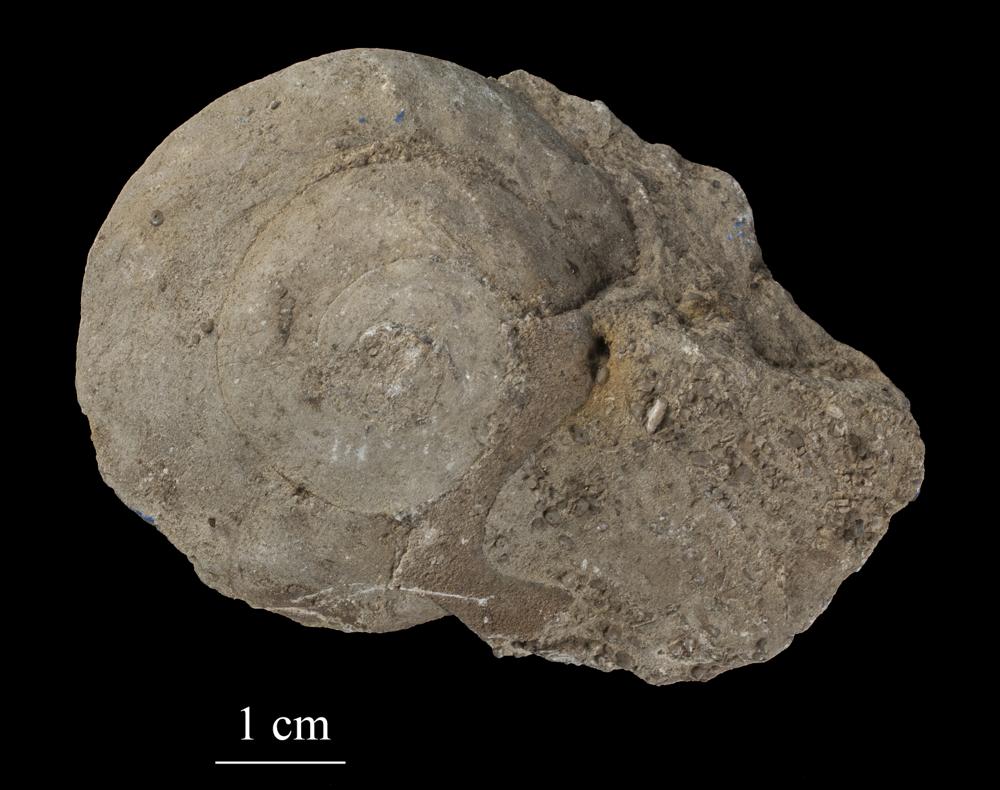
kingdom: Animalia
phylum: Mollusca
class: Gastropoda
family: Euomphalidae
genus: Euomphalus
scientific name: Euomphalus
